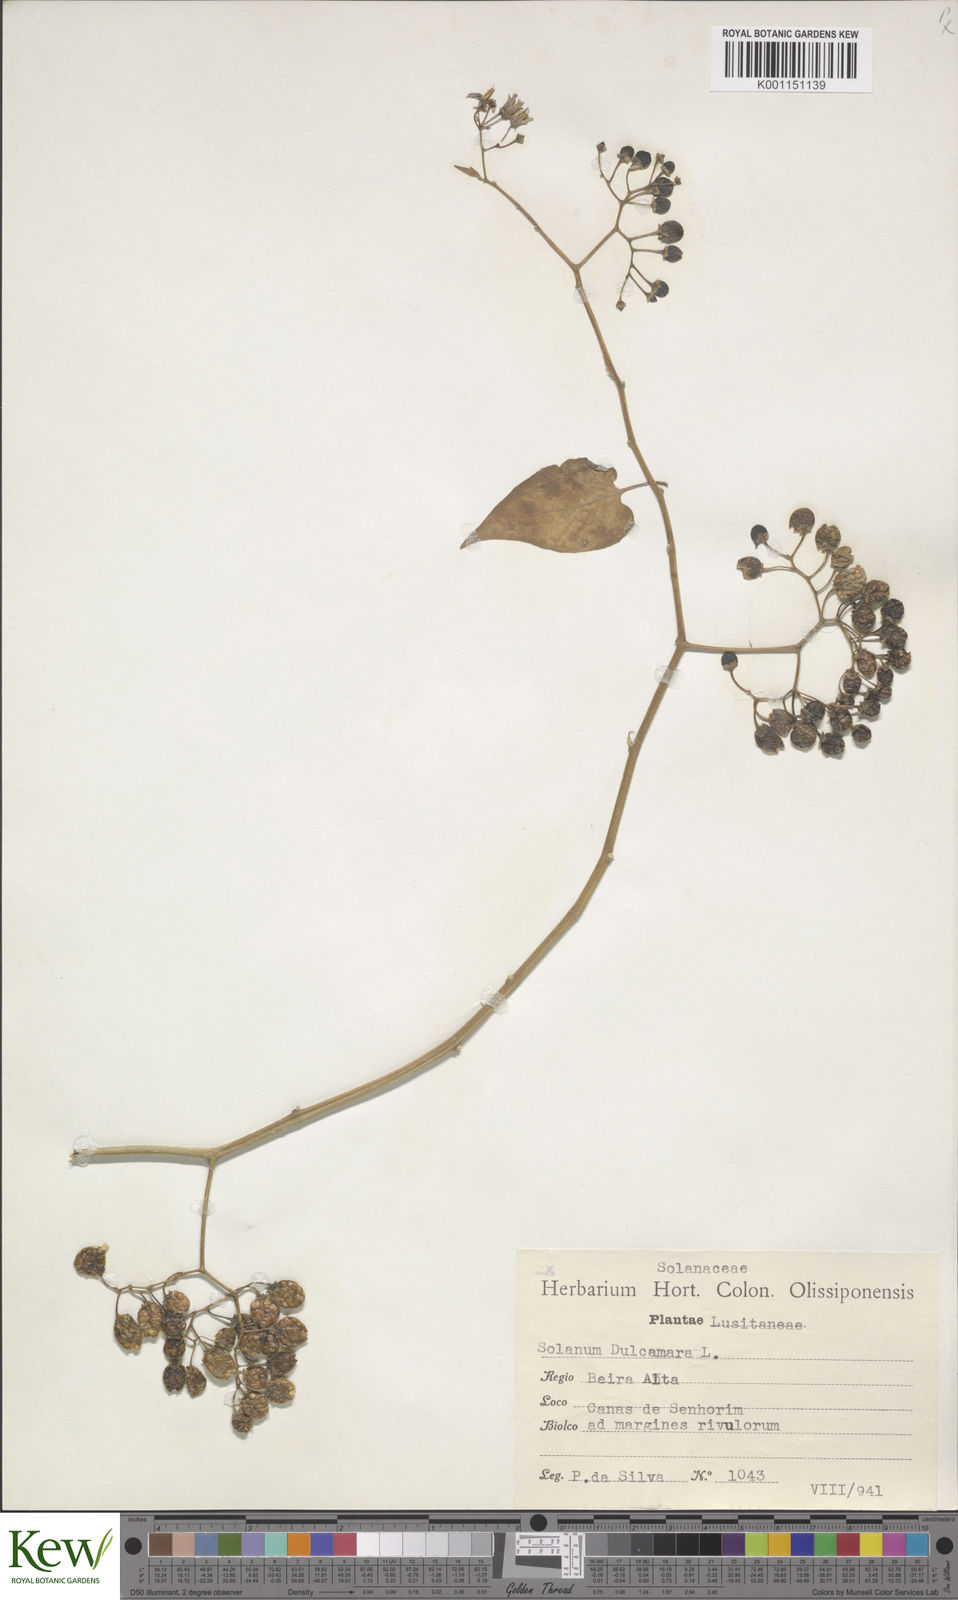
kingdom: Plantae
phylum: Tracheophyta
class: Magnoliopsida
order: Solanales
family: Solanaceae
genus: Solanum
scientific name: Solanum dulcamara
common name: Climbing nightshade
